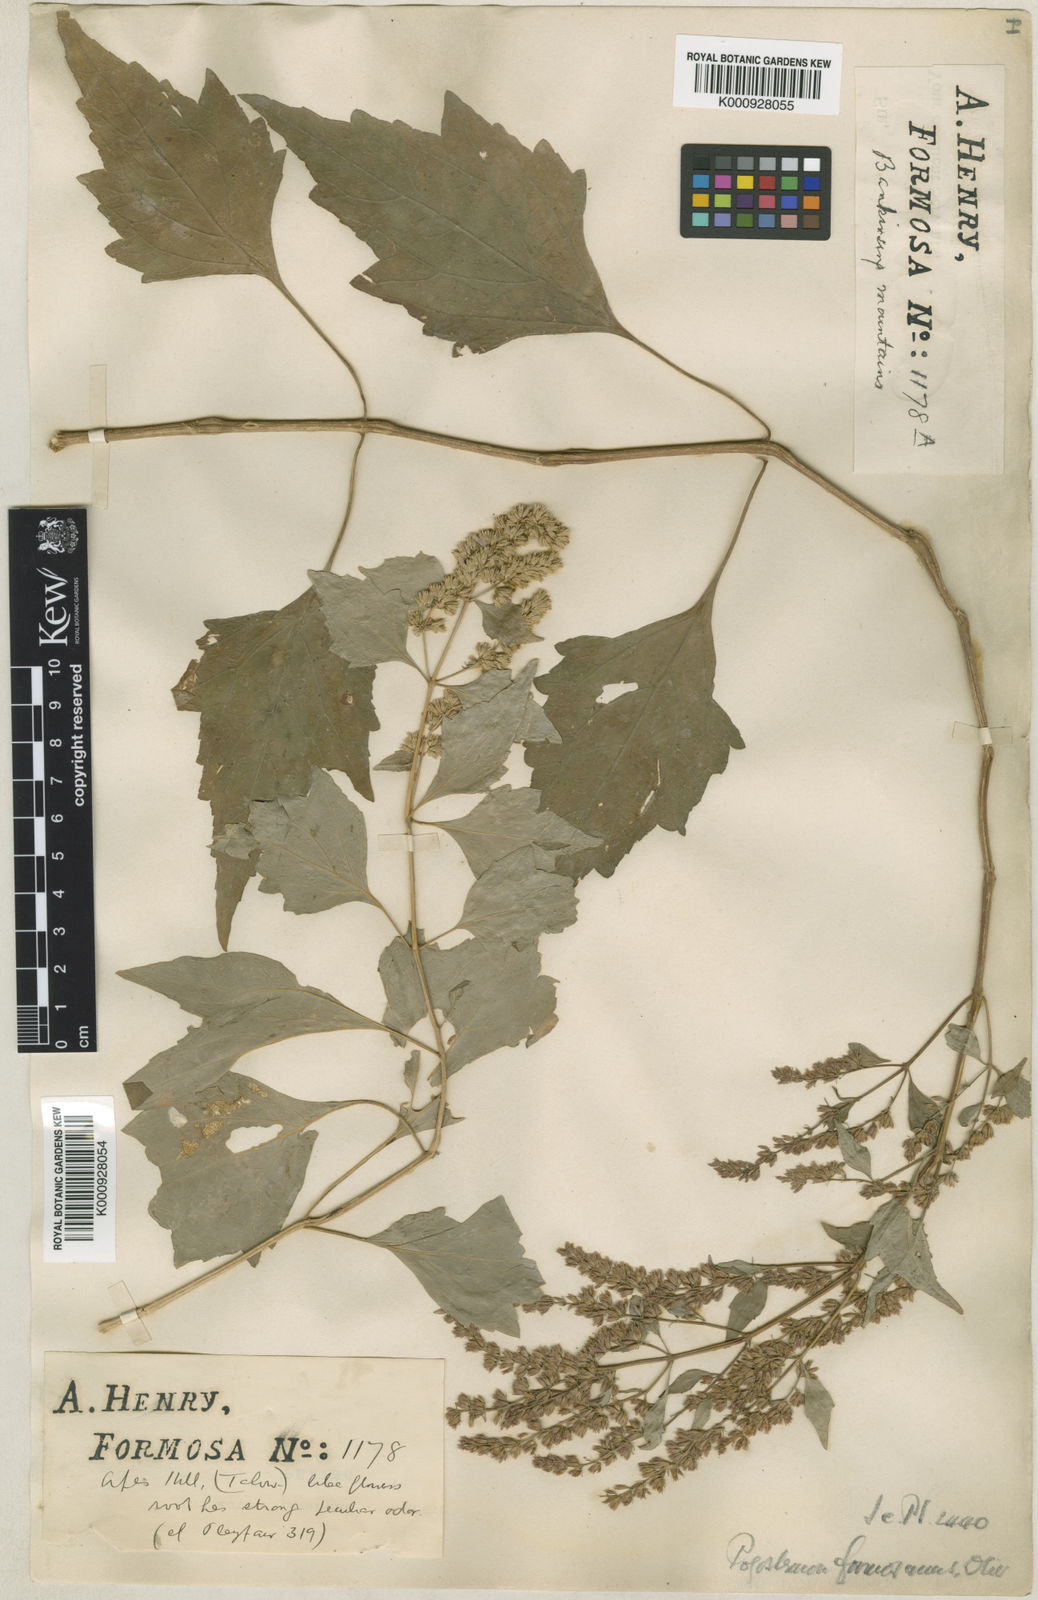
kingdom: Plantae
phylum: Tracheophyta
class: Magnoliopsida
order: Lamiales
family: Lamiaceae
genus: Pogostemon
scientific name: Pogostemon formosanus
